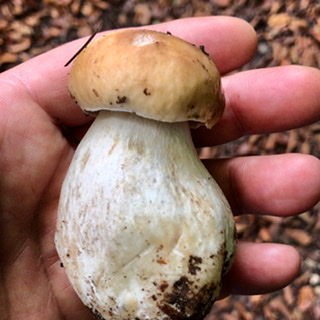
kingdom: Fungi
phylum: Basidiomycota
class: Agaricomycetes
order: Boletales
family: Boletaceae
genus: Boletus
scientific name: Boletus edulis
